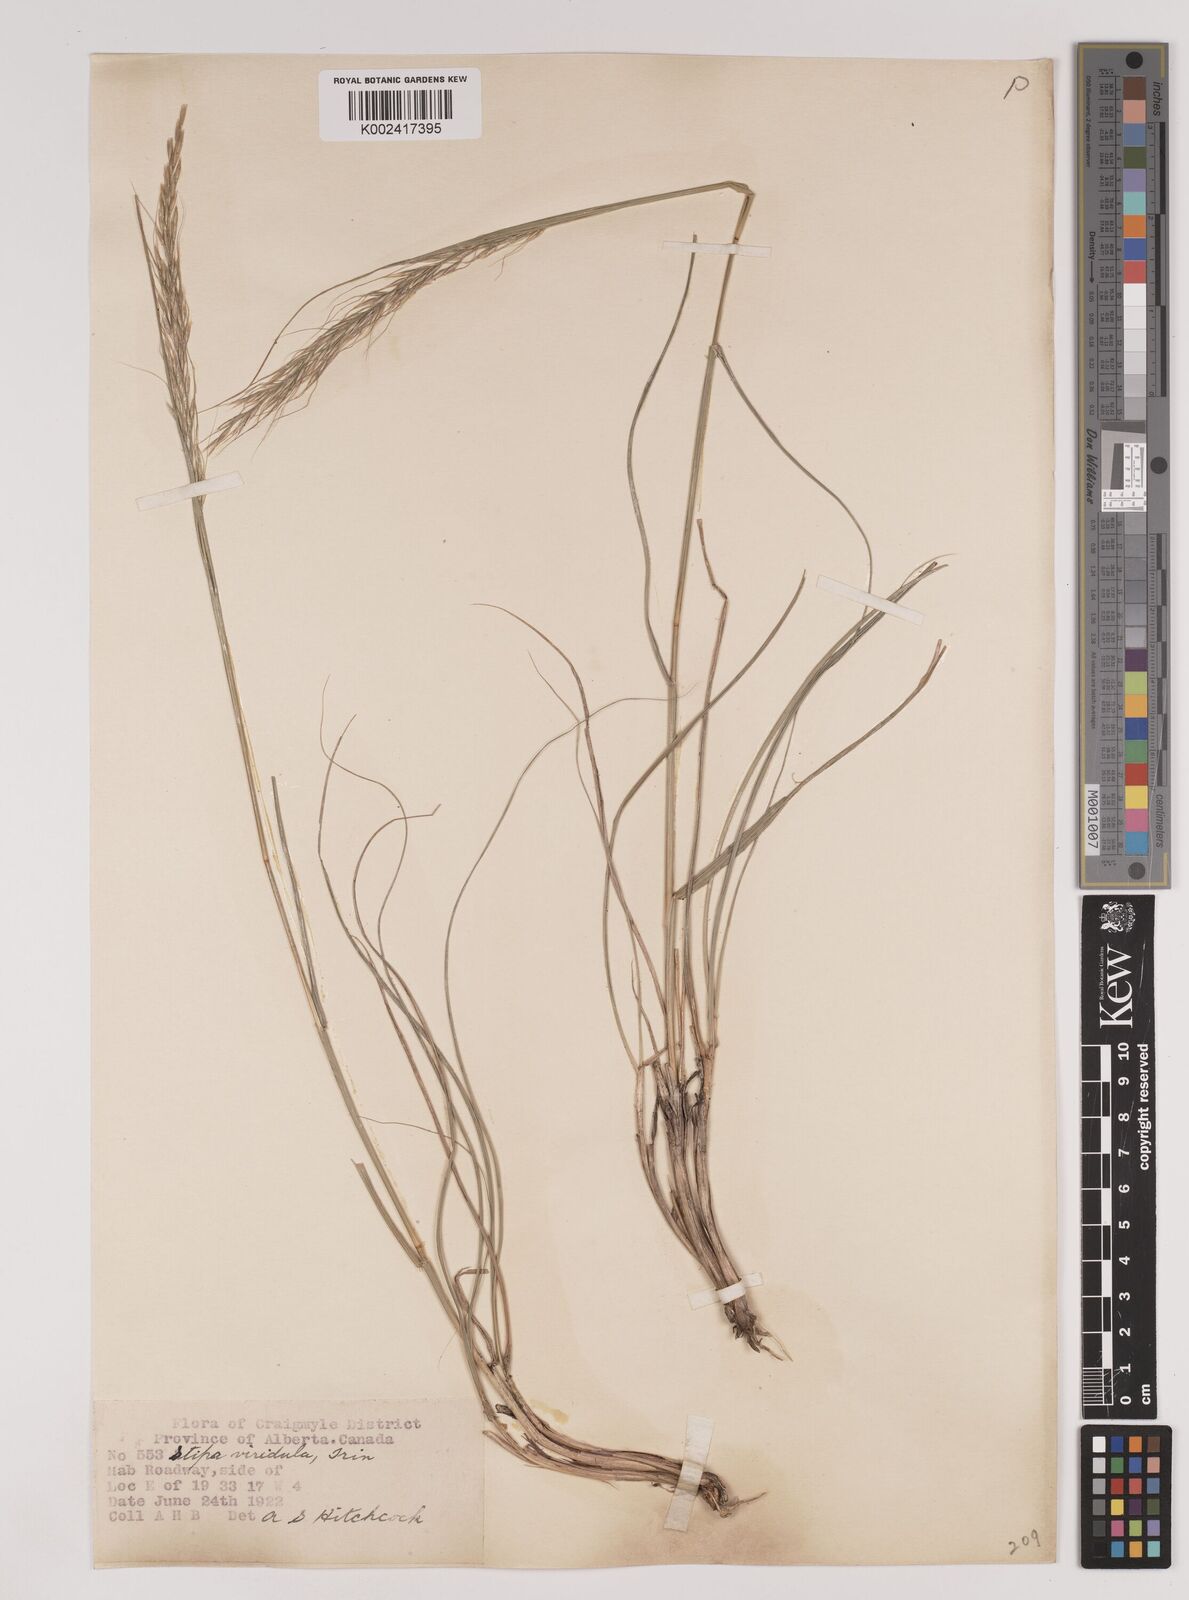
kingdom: Plantae
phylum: Tracheophyta
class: Liliopsida
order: Poales
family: Poaceae
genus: Nassella
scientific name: Nassella viridula
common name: Green needlegrass
